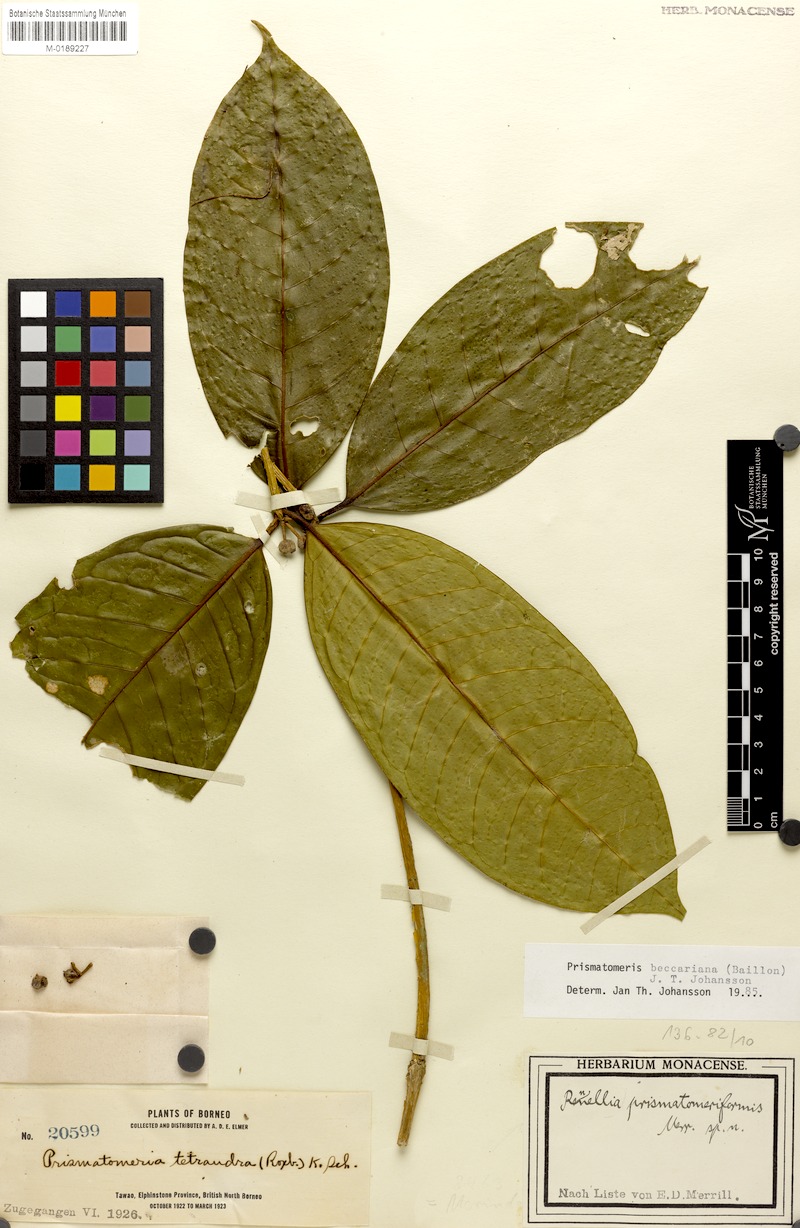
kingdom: Plantae
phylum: Tracheophyta
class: Magnoliopsida
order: Gentianales
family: Rubiaceae
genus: Prismatomeris
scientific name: Prismatomeris beccariana
